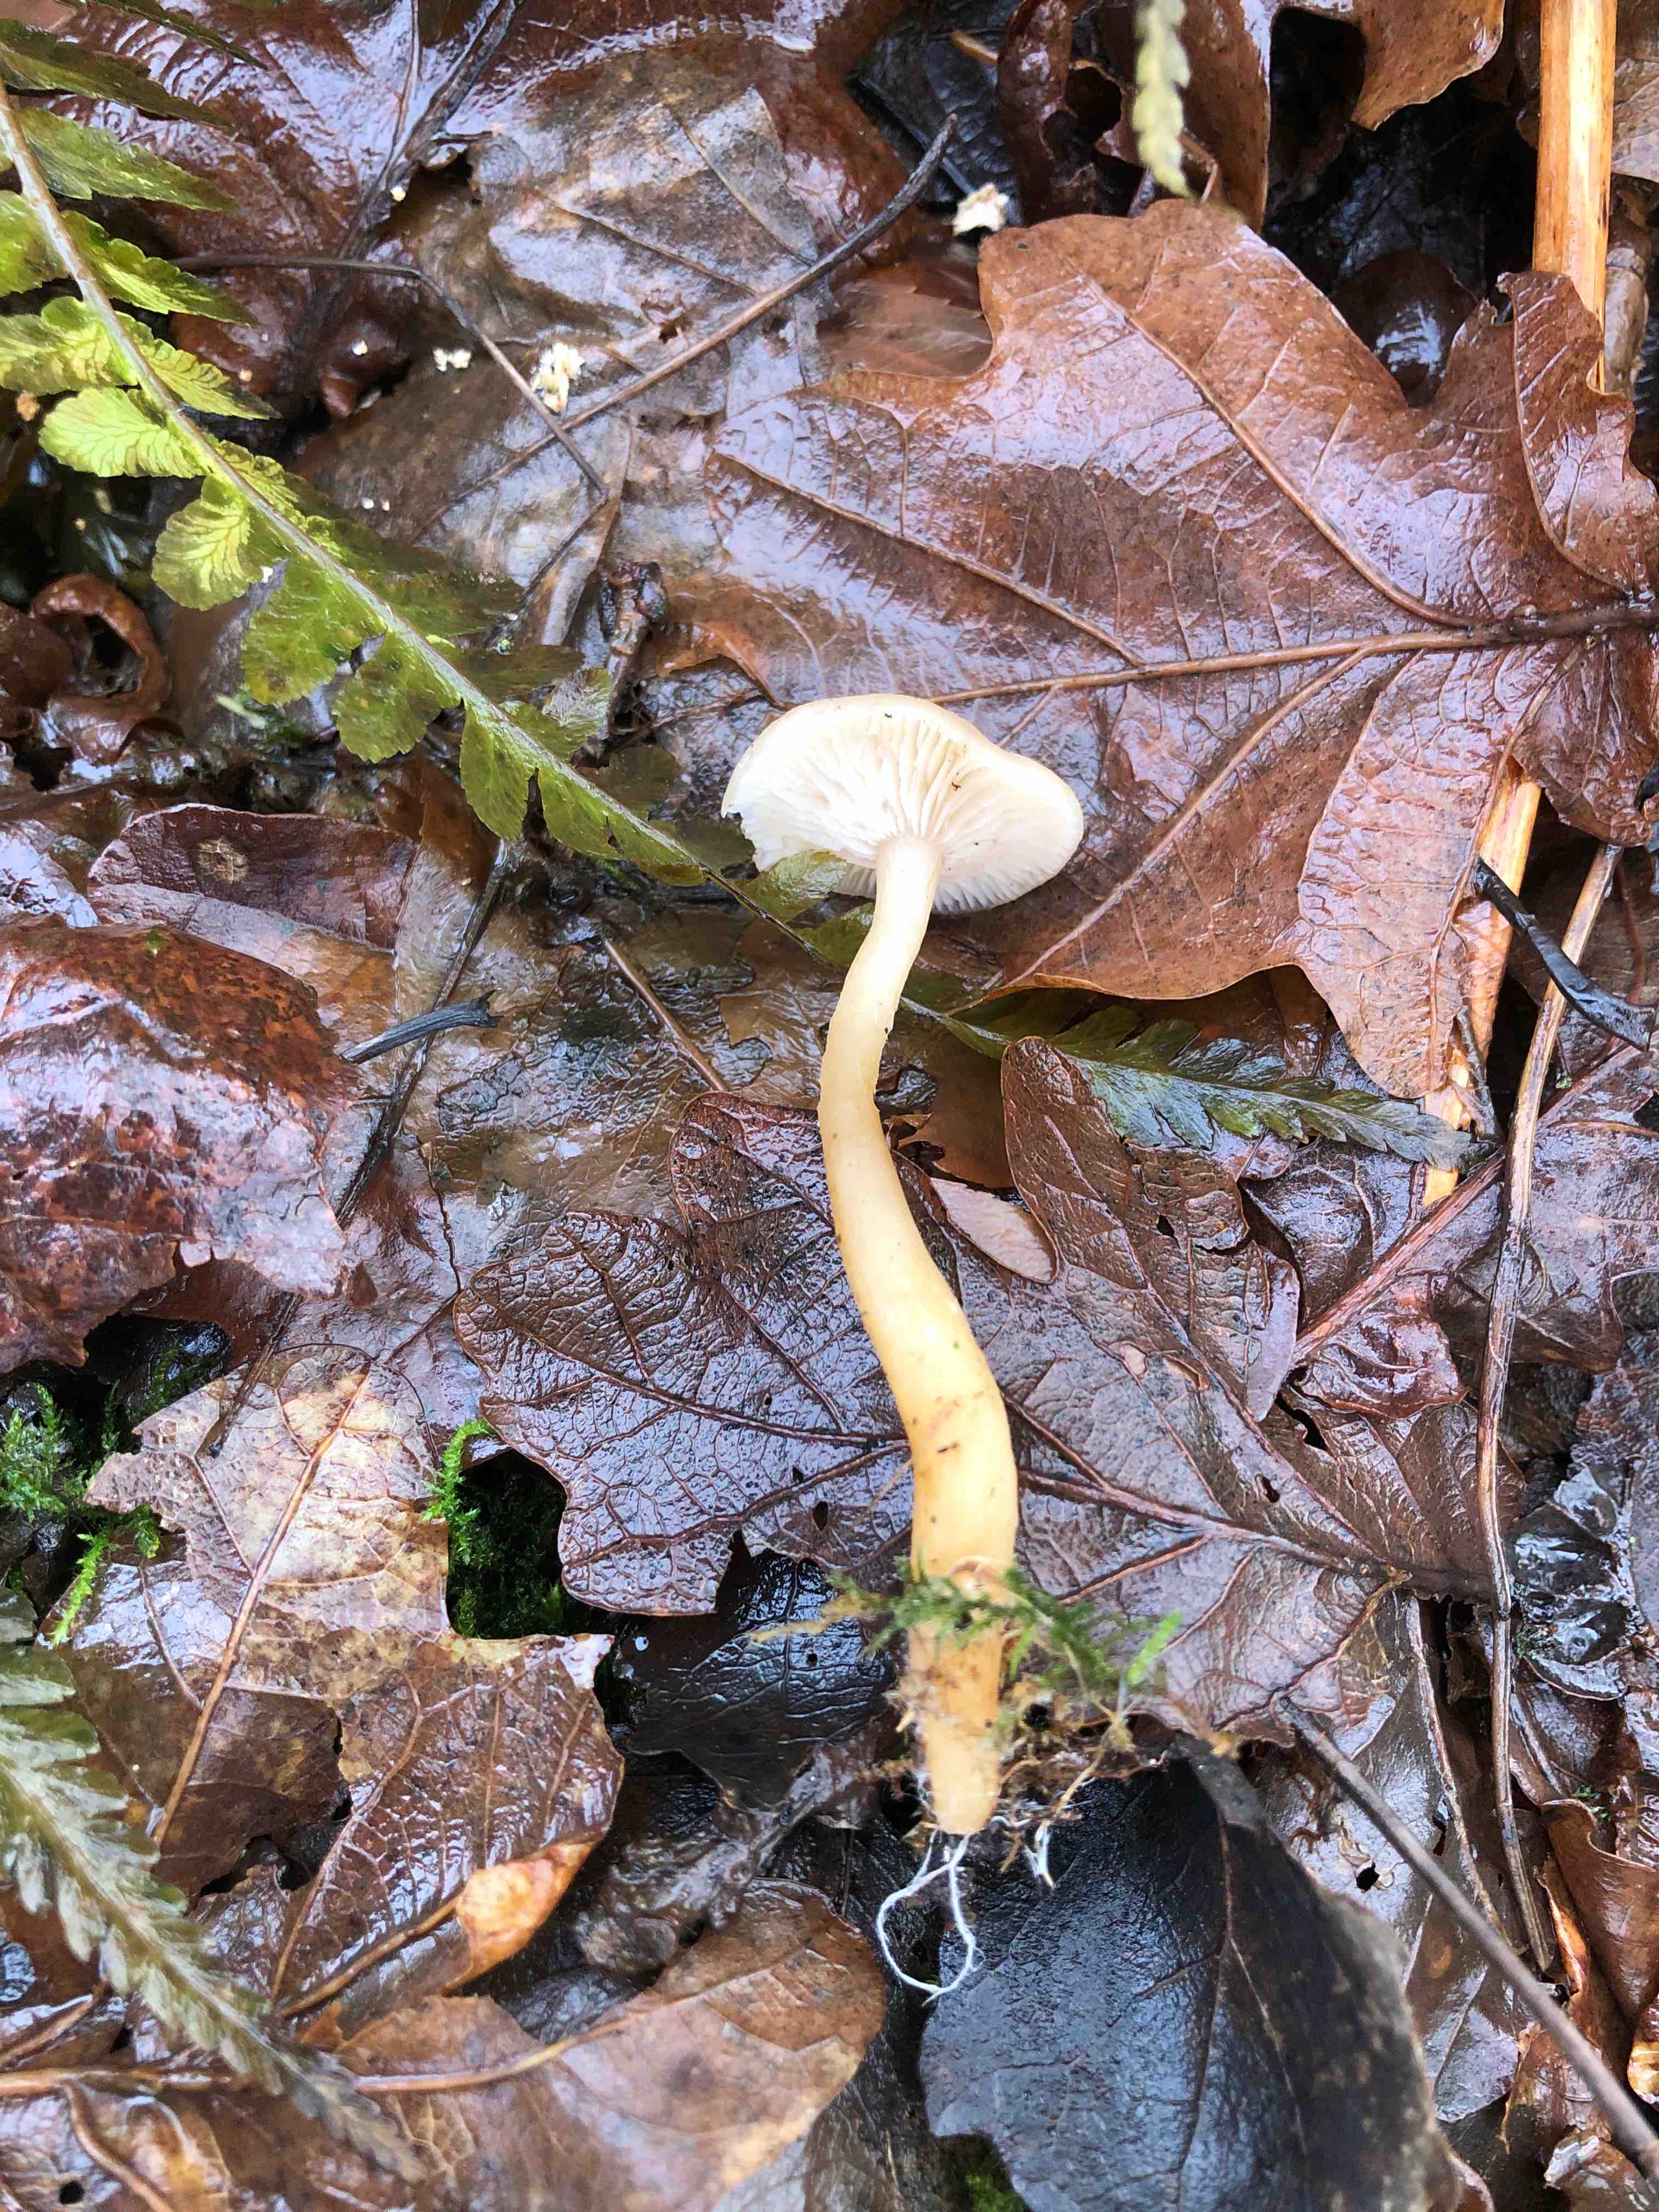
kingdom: Fungi
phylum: Basidiomycota
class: Agaricomycetes
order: Agaricales
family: Tricholomataceae
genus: Clitocybe
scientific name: Clitocybe fragrans
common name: vellugtende tragthat
